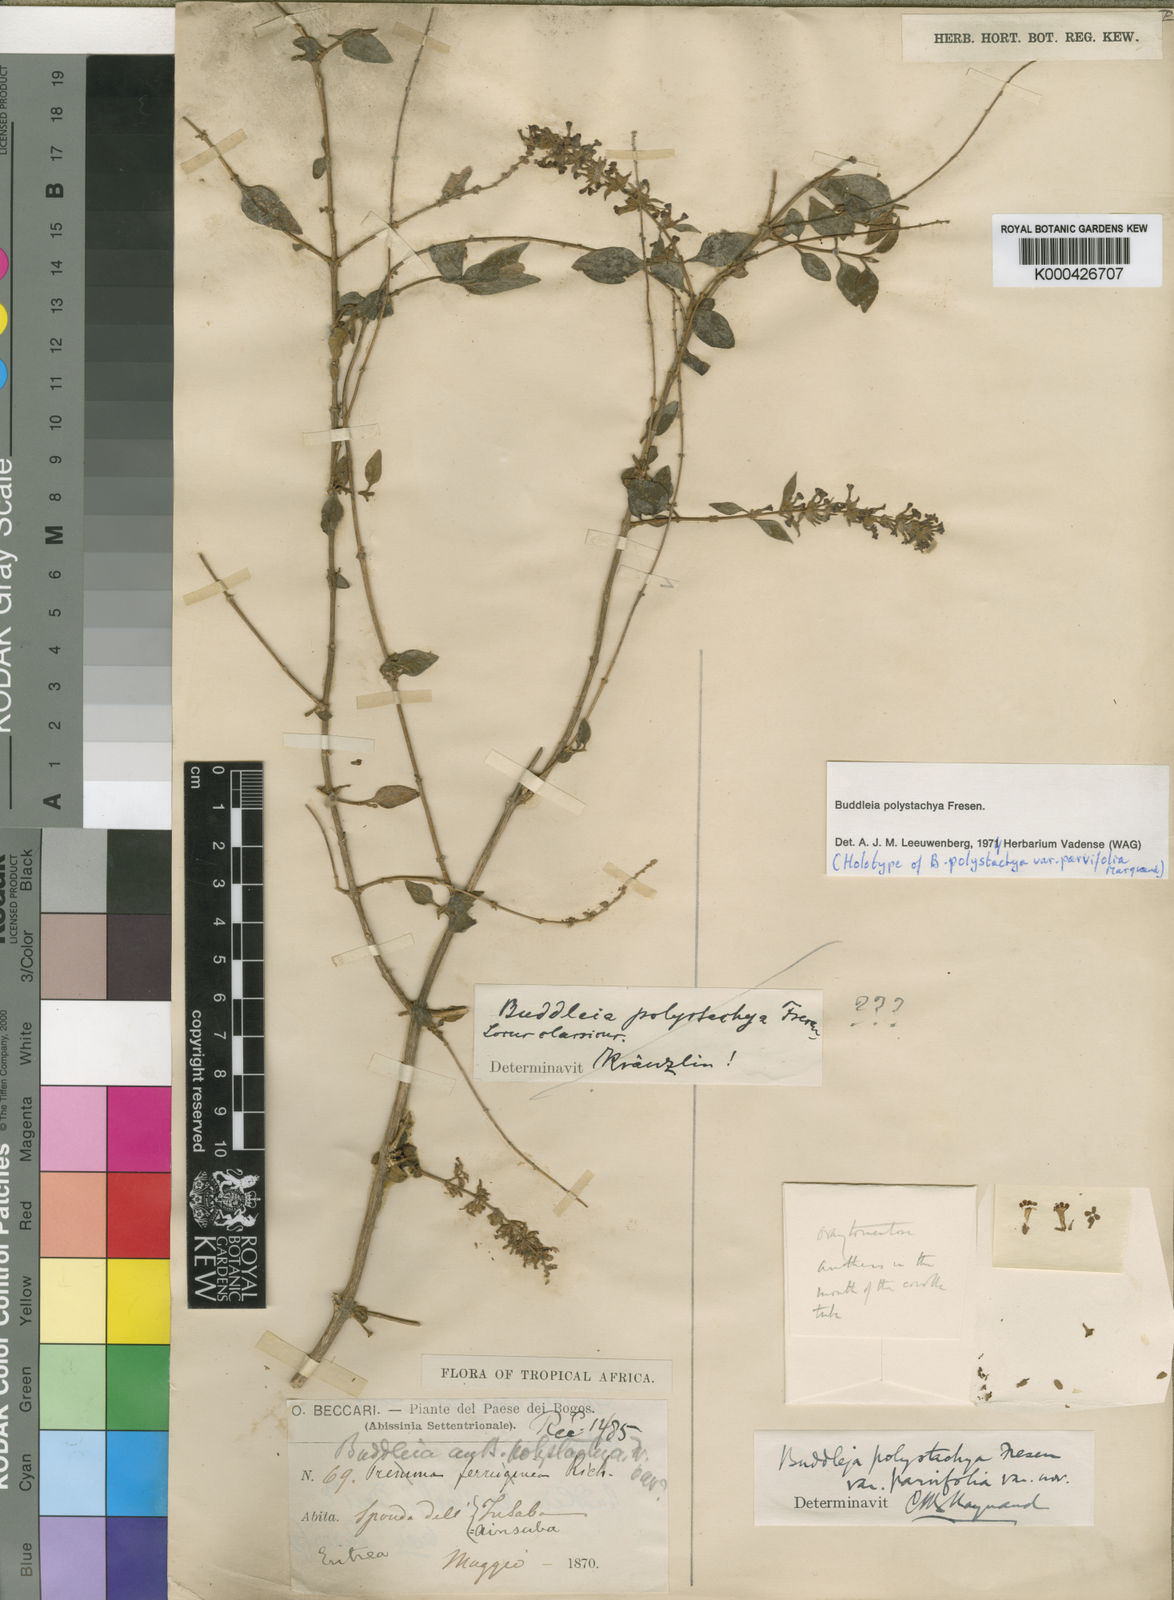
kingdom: Plantae
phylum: Tracheophyta
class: Magnoliopsida
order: Lamiales
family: Scrophulariaceae
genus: Buddleja
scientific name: Buddleja polystachya
